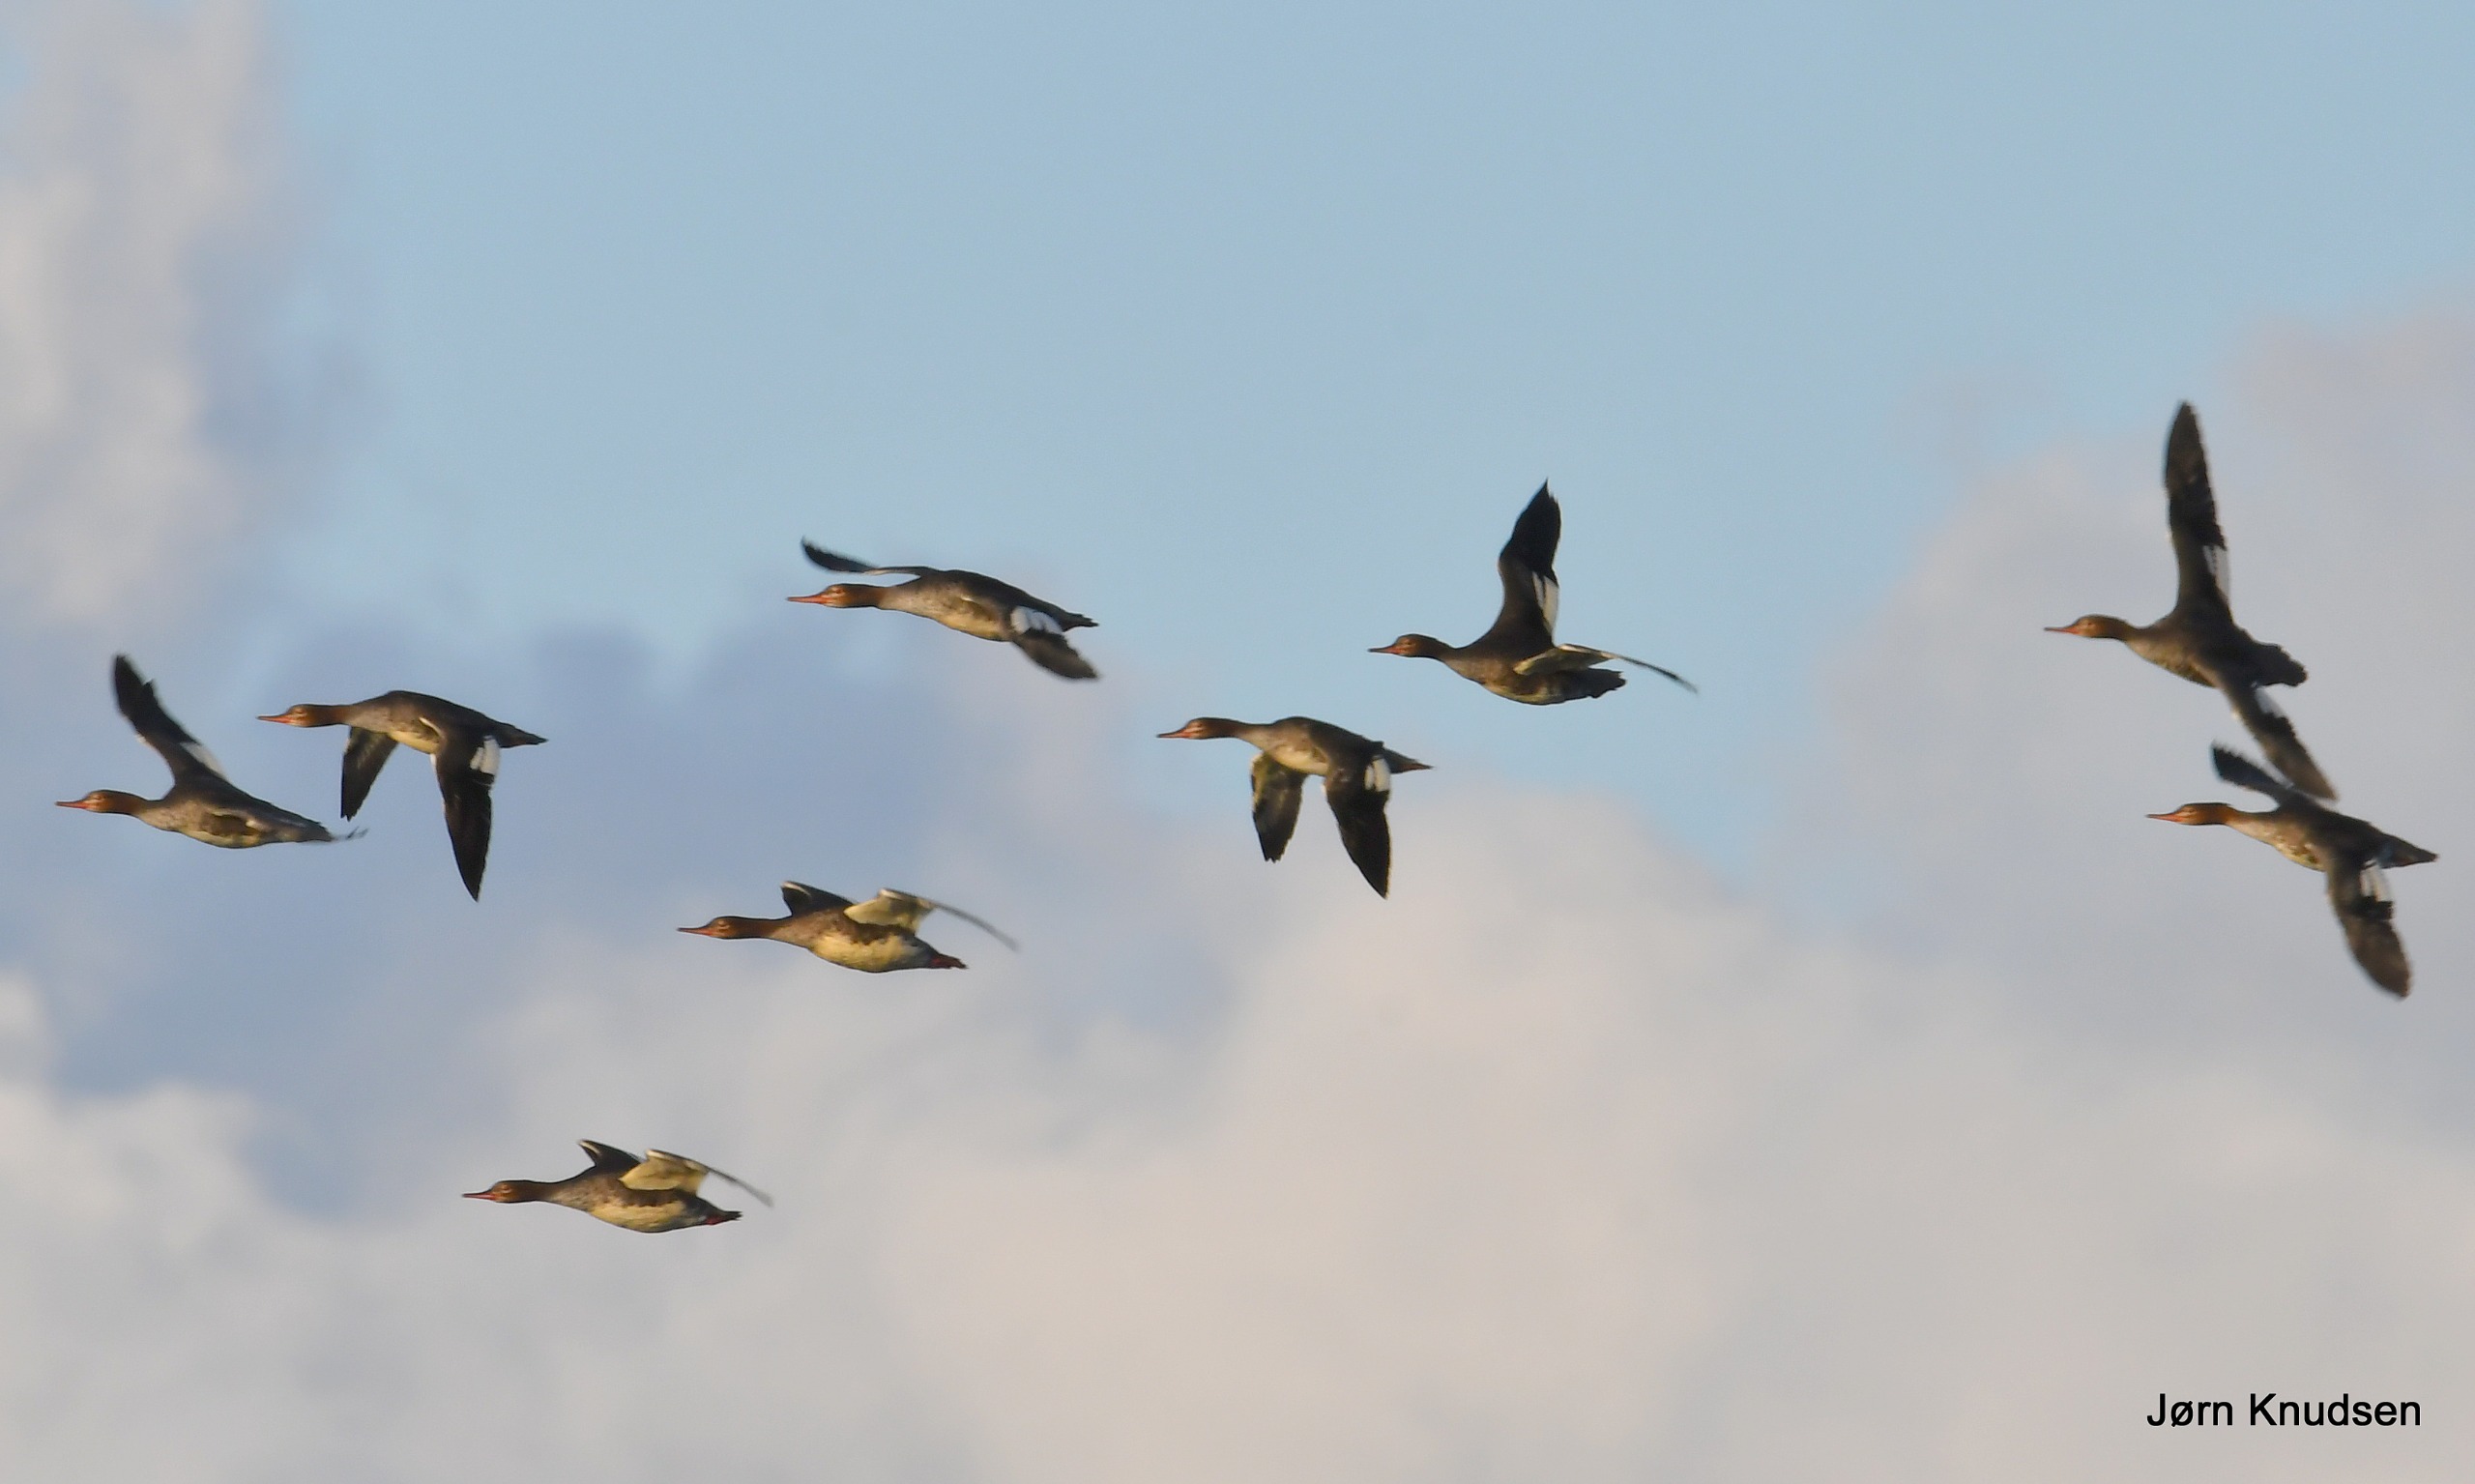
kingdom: Animalia
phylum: Chordata
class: Aves
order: Anseriformes
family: Anatidae
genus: Mergus
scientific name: Mergus serrator
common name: Toppet skallesluger
